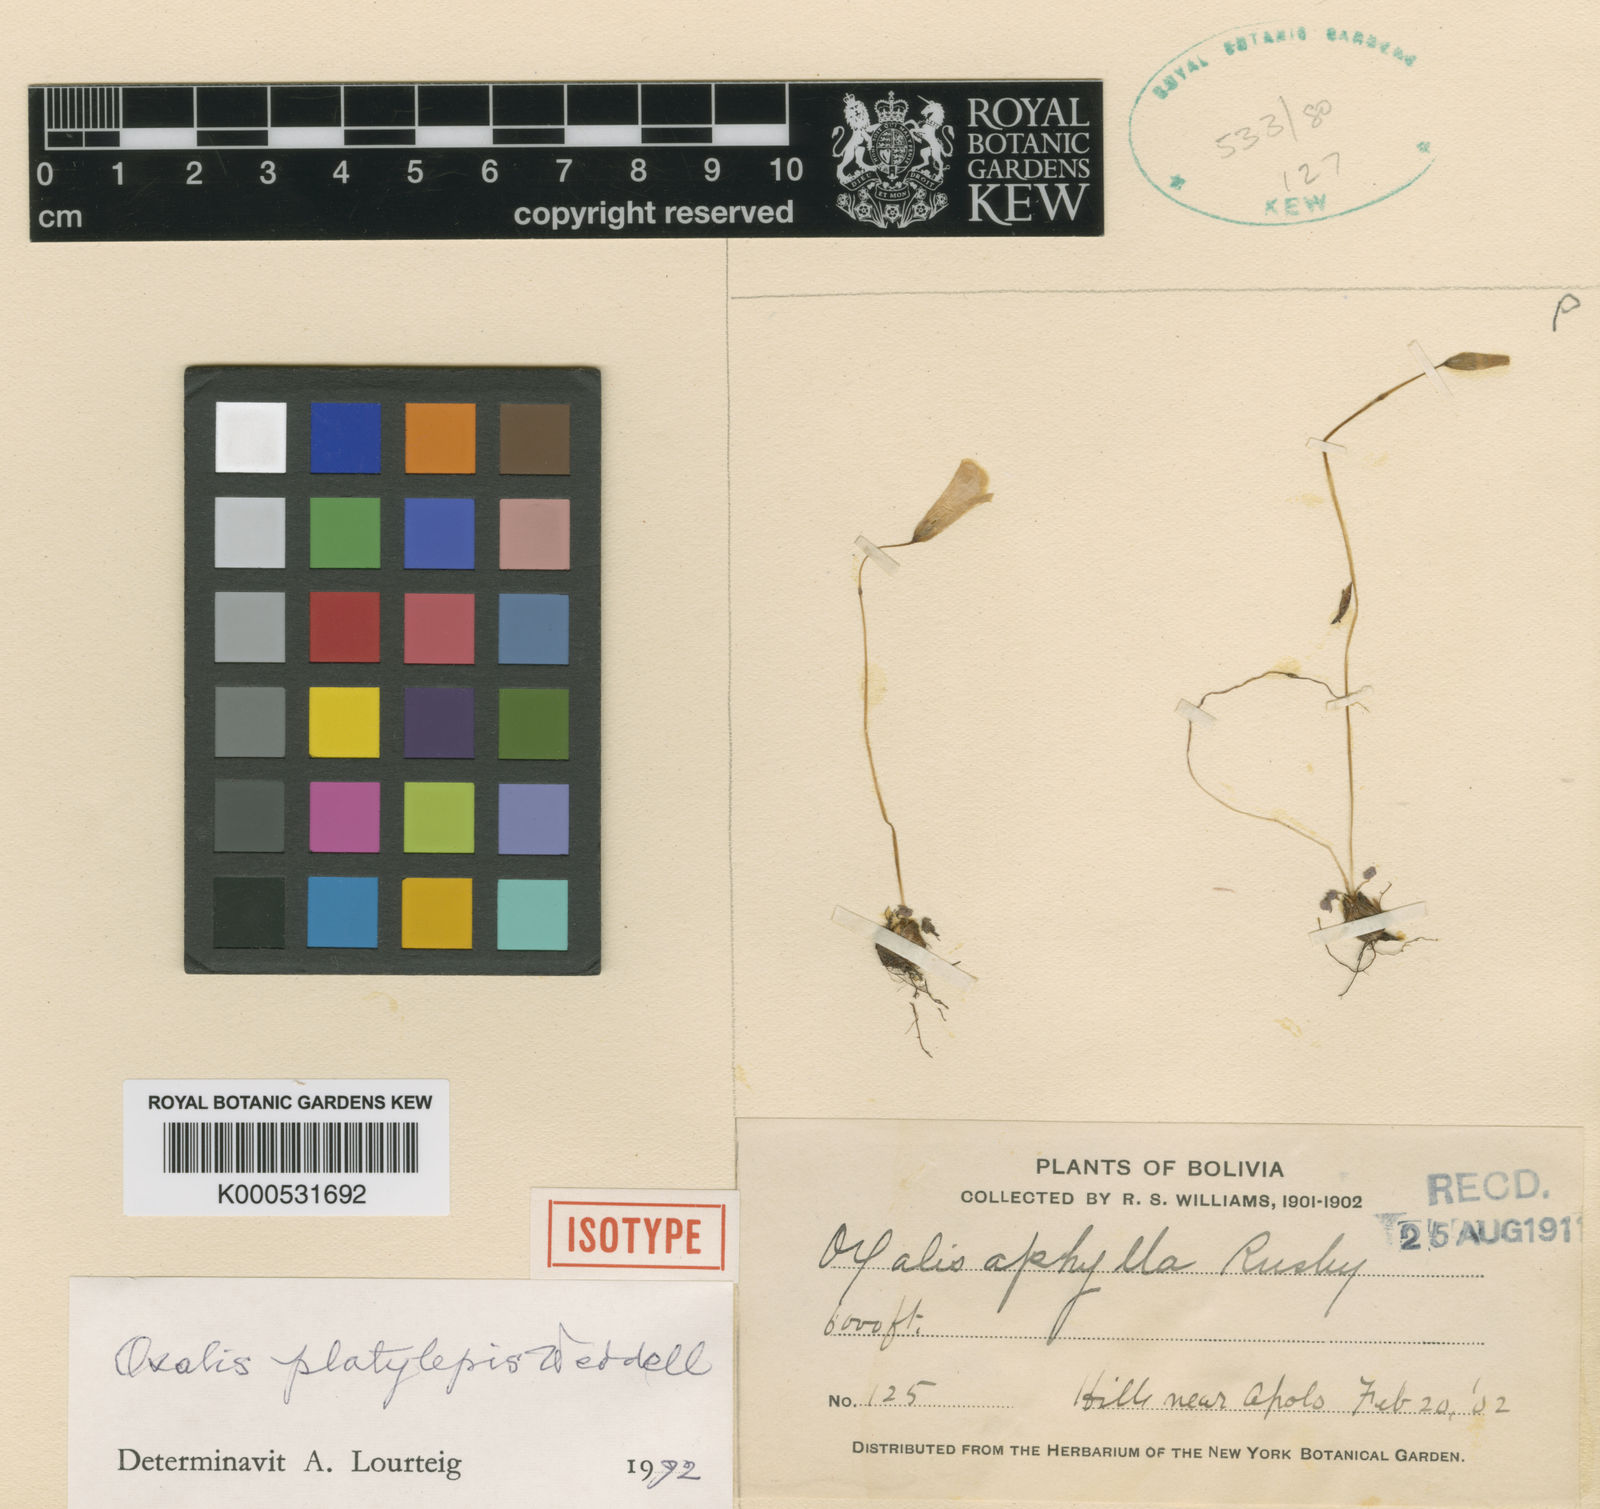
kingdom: Plantae
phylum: Tracheophyta
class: Magnoliopsida
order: Oxalidales
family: Oxalidaceae
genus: Oxalis
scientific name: Oxalis platylepis
